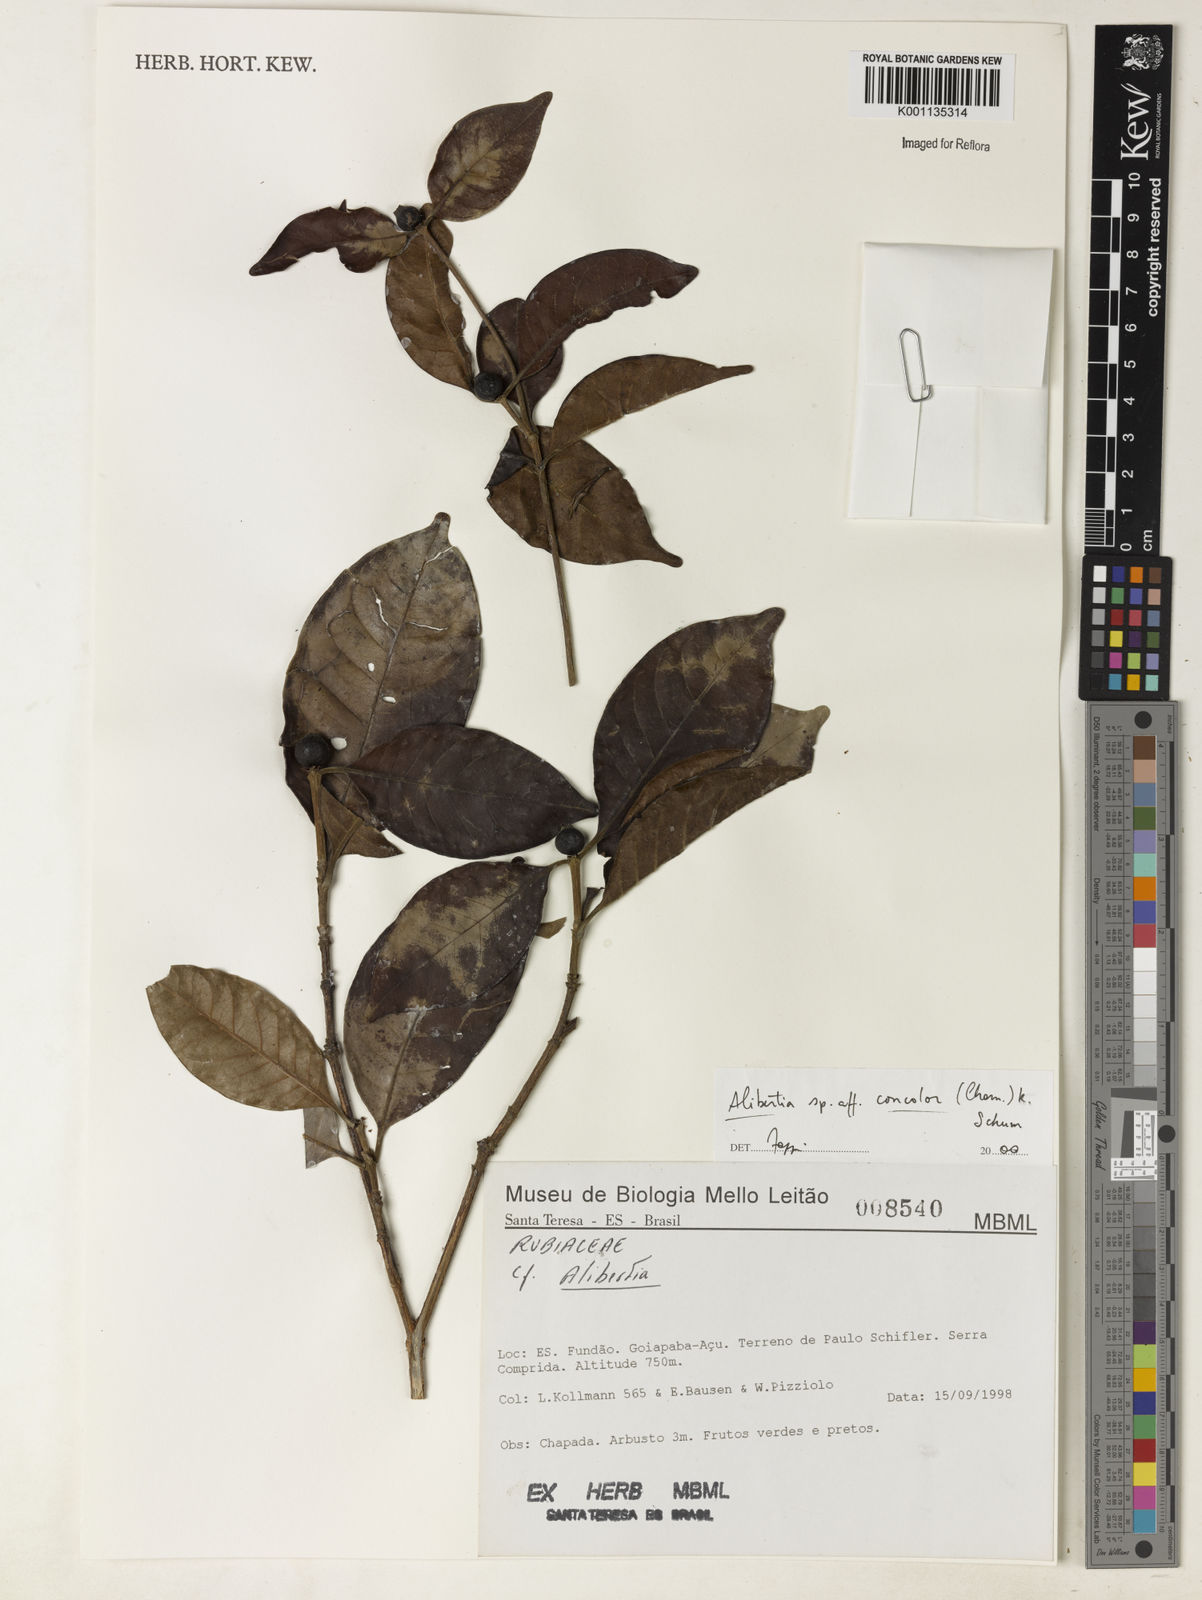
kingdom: Plantae
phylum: Tracheophyta
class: Magnoliopsida
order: Gentianales
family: Rubiaceae
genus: Cordiera
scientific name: Cordiera concolor
